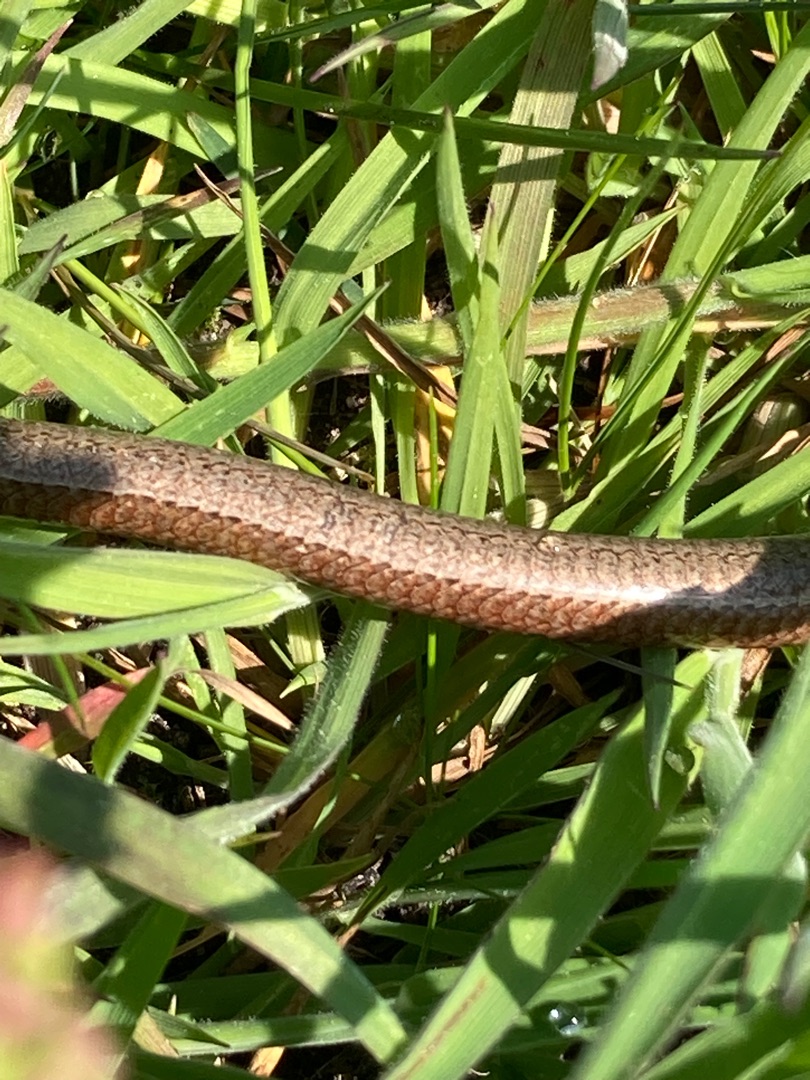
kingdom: Animalia
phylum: Chordata
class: Squamata
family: Anguidae
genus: Anguis
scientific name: Anguis fragilis
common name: Stålorm
